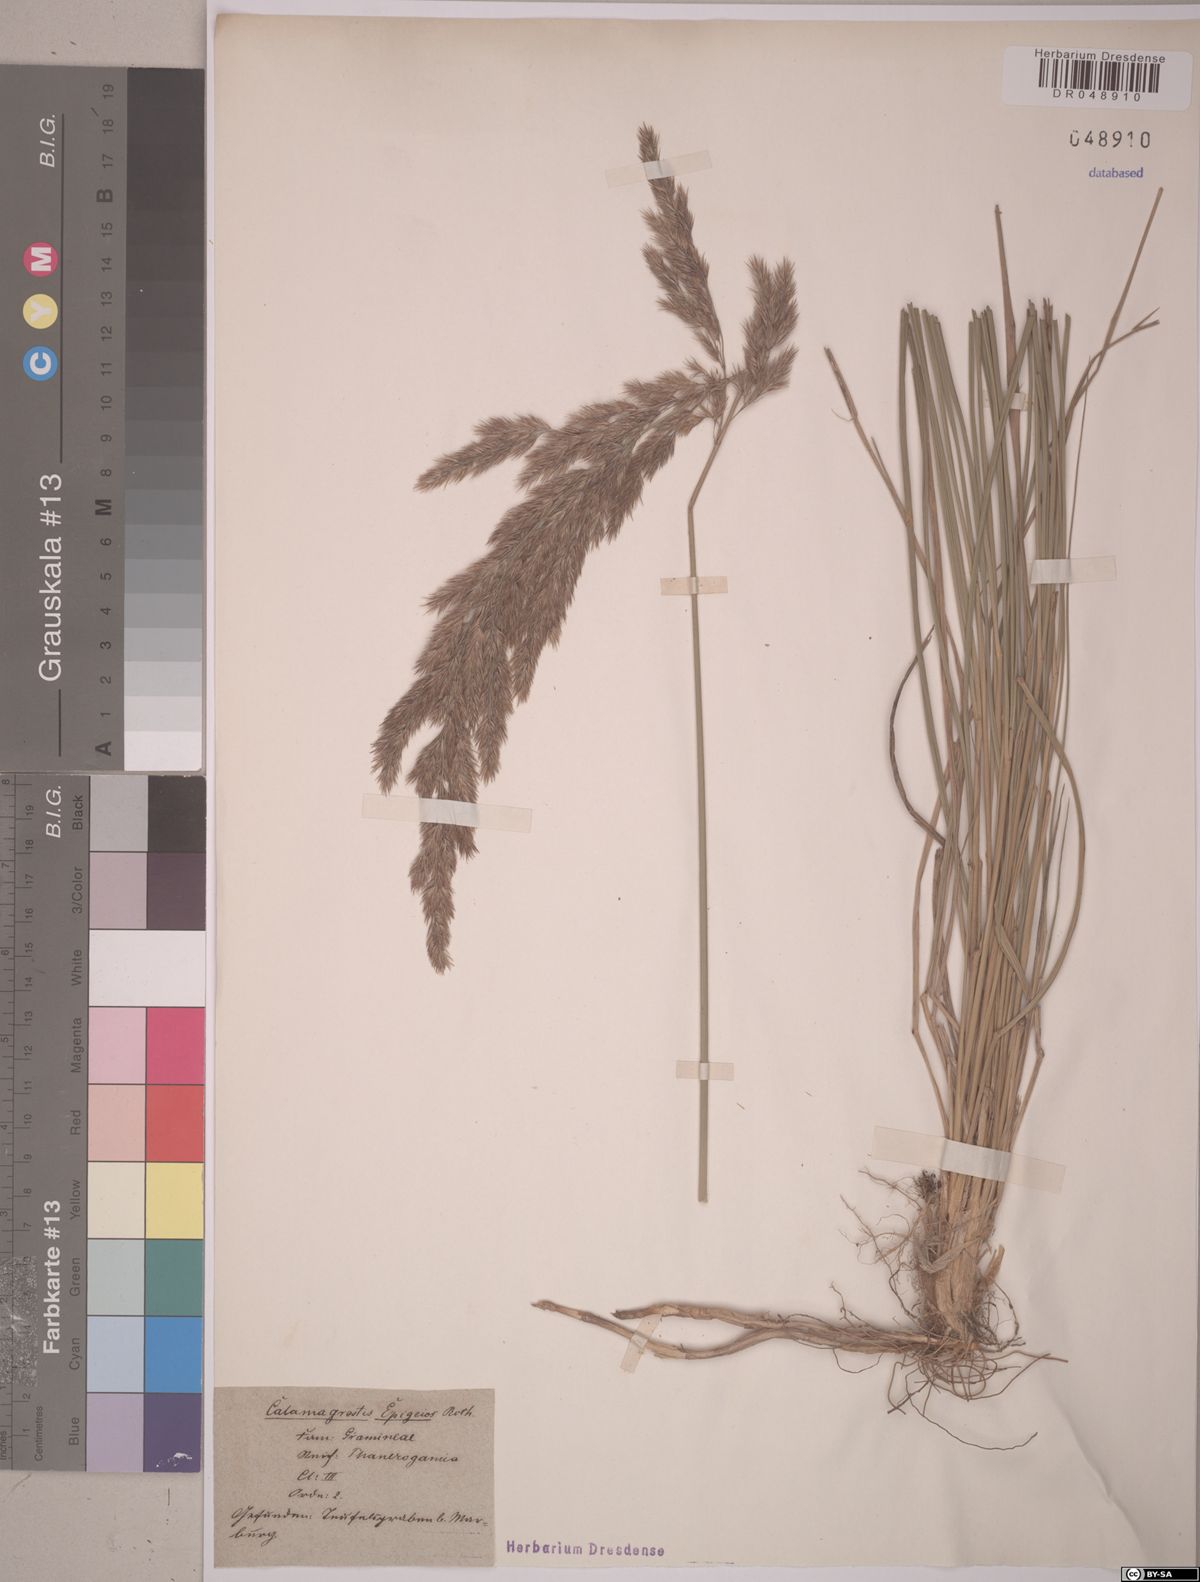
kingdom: Plantae
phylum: Tracheophyta
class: Liliopsida
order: Poales
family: Poaceae
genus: Calamagrostis
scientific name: Calamagrostis epigejos
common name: Wood small-reed
